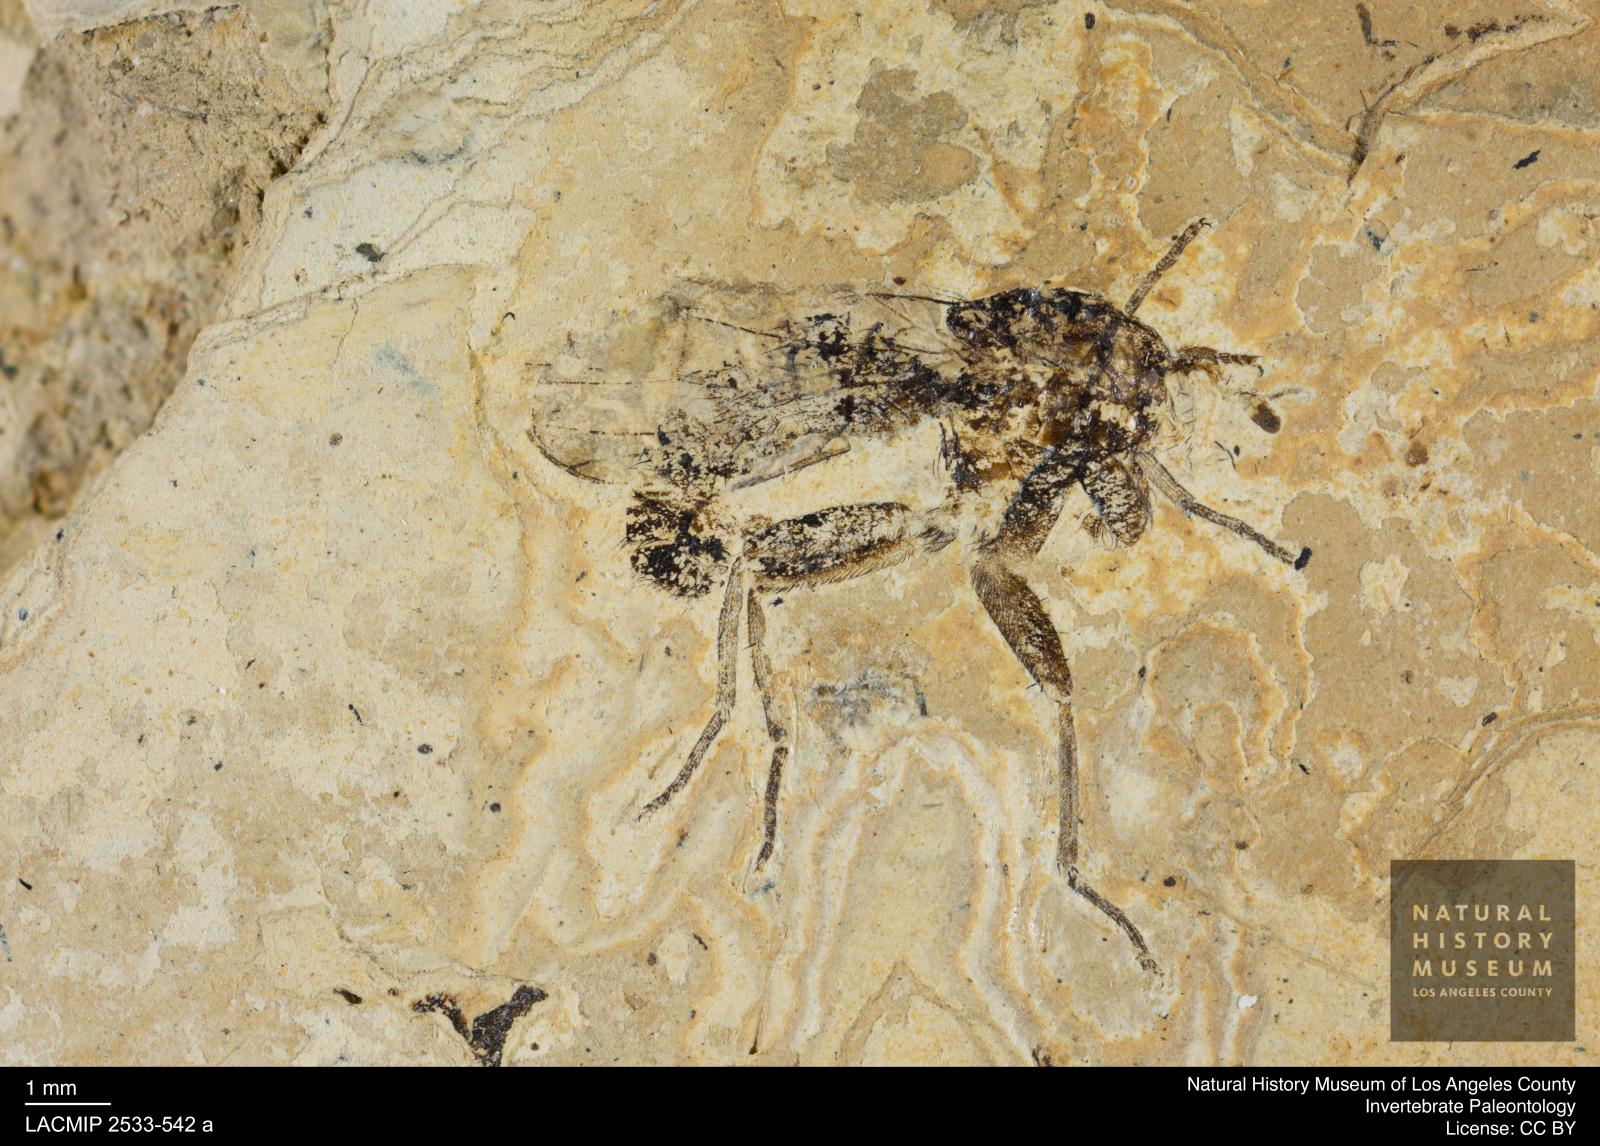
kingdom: Animalia
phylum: Arthropoda
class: Insecta
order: Diptera
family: Scathophagidae
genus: Norellisoma
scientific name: Norellisoma setarium
